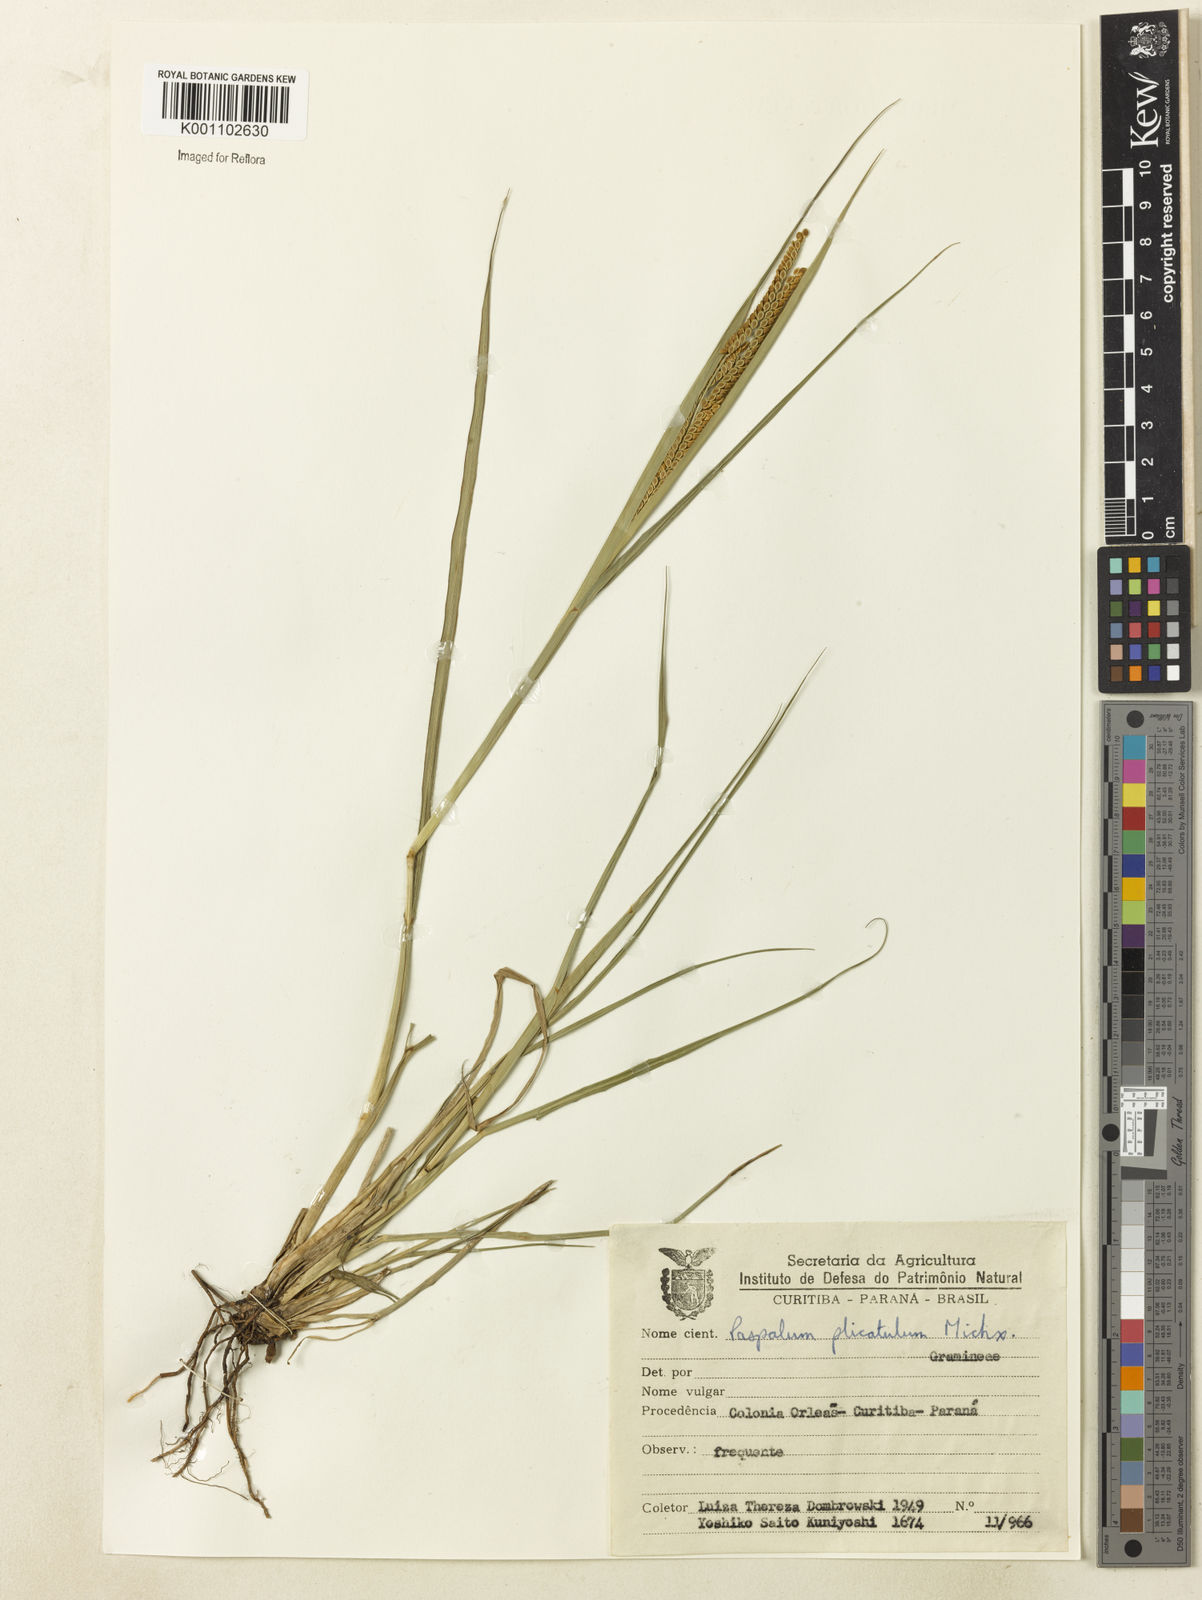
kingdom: Plantae
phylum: Tracheophyta
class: Liliopsida
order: Poales
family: Poaceae
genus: Paspalum
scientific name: Paspalum
